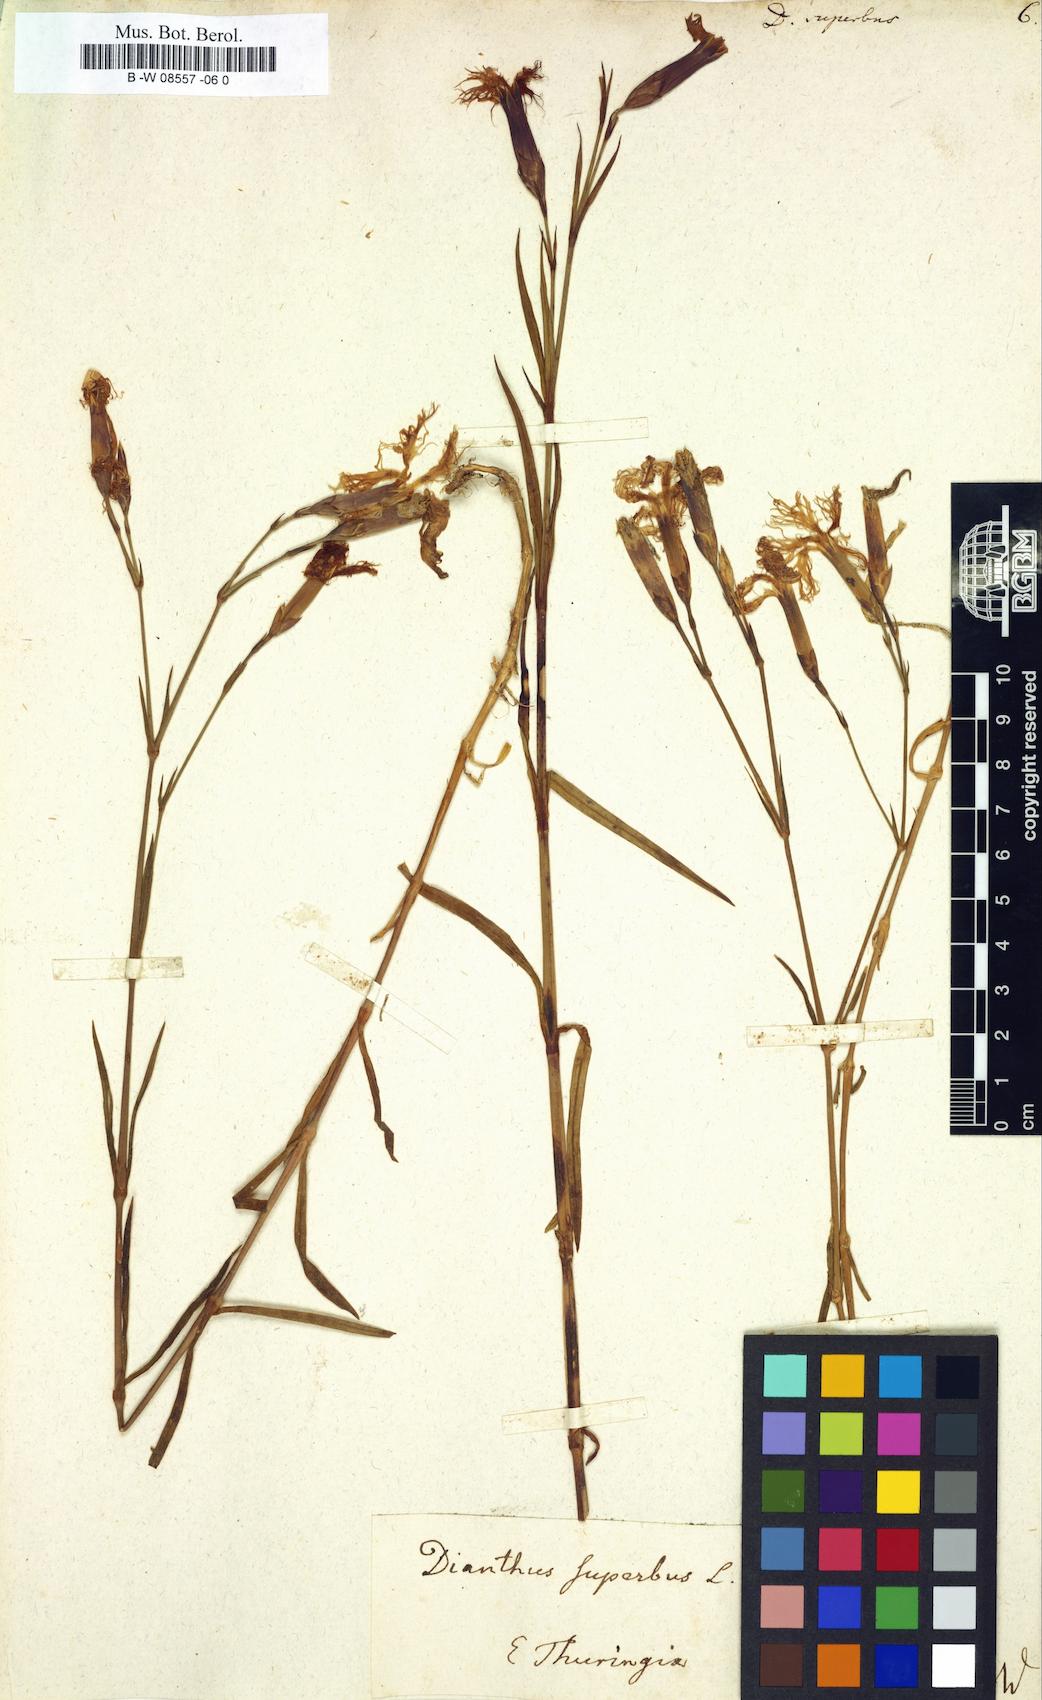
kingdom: Plantae
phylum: Tracheophyta
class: Magnoliopsida
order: Caryophyllales
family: Caryophyllaceae
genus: Dianthus
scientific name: Dianthus superbus
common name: Fringed pink
